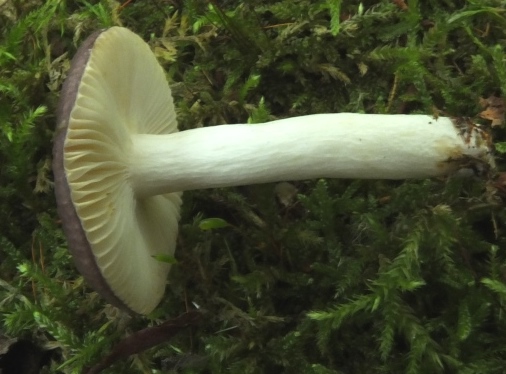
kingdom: Fungi
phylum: Basidiomycota
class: Agaricomycetes
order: Russulales
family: Russulaceae
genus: Russula
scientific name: Russula alnetorum
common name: elle-skørhat
